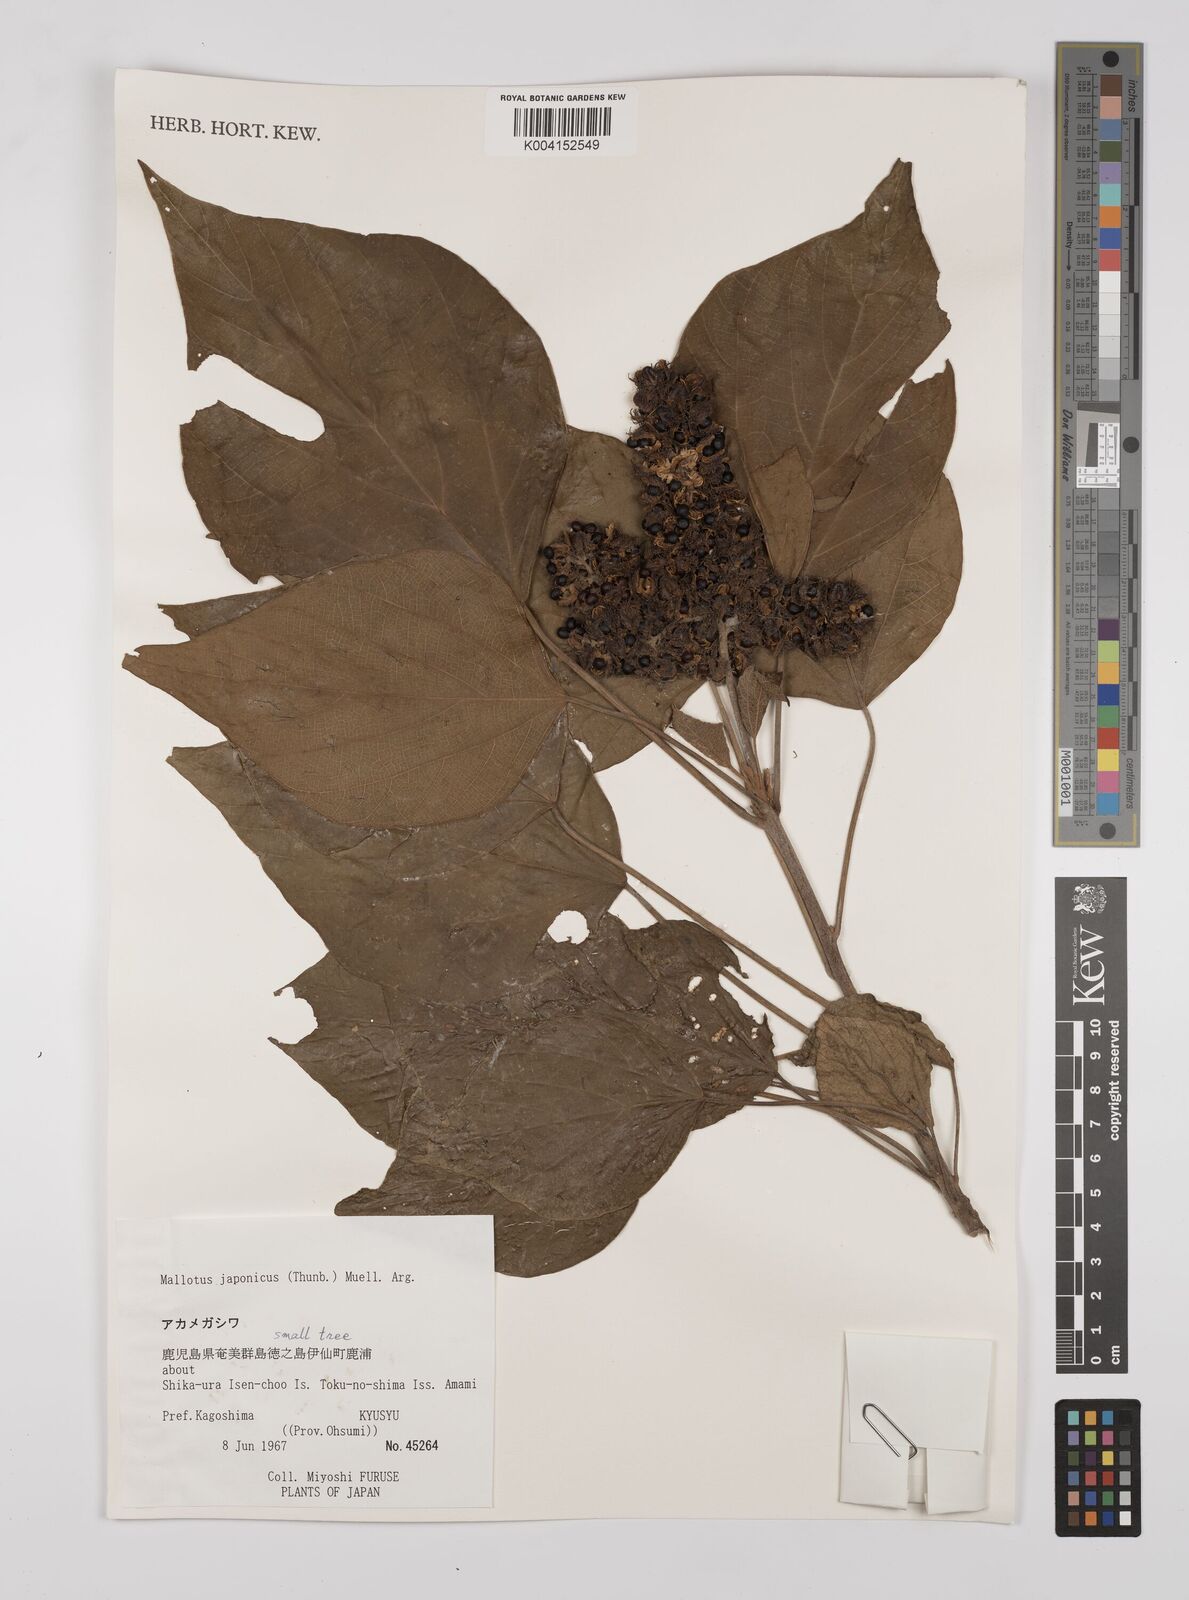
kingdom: Plantae
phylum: Tracheophyta
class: Magnoliopsida
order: Malpighiales
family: Euphorbiaceae
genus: Mallotus
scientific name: Mallotus japonicus
